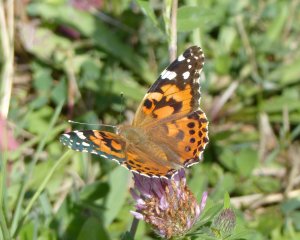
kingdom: Animalia
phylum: Arthropoda
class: Insecta
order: Lepidoptera
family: Nymphalidae
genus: Vanessa
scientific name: Vanessa cardui
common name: Painted Lady
